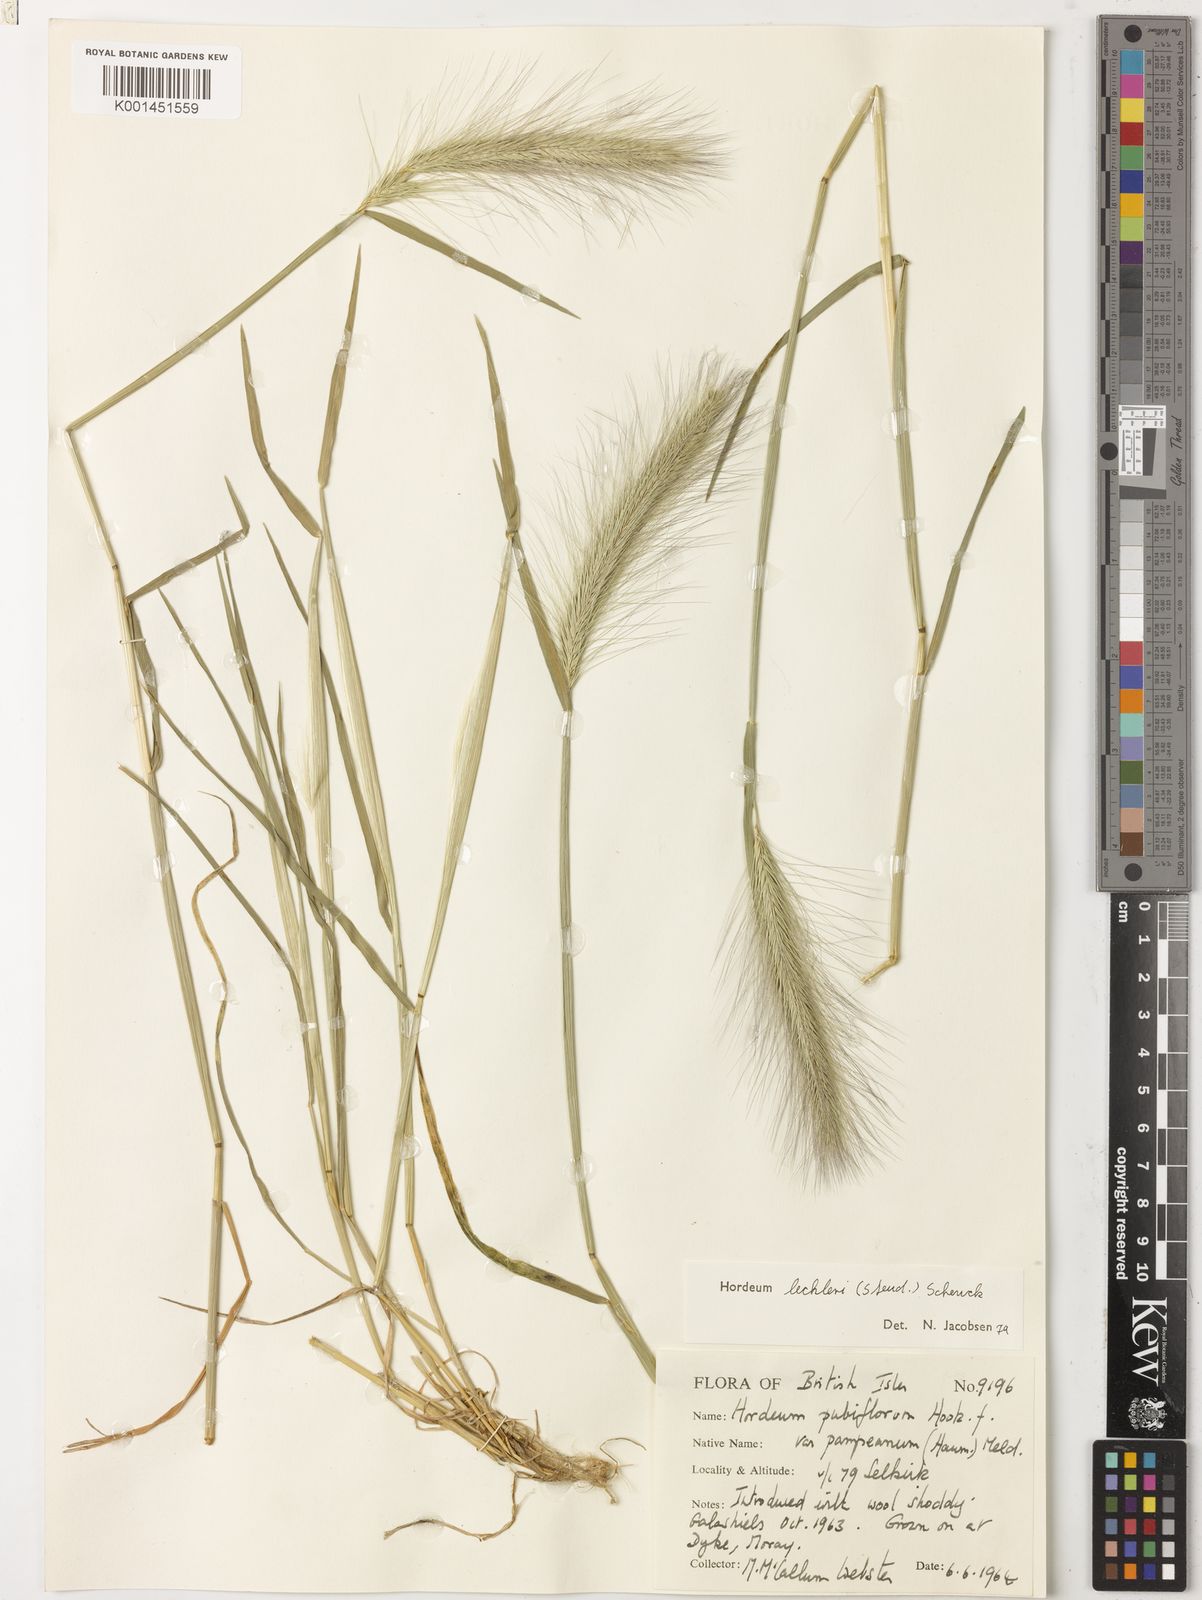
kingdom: Plantae
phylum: Tracheophyta
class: Liliopsida
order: Poales
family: Poaceae
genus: Hordeum
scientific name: Hordeum lechleri
